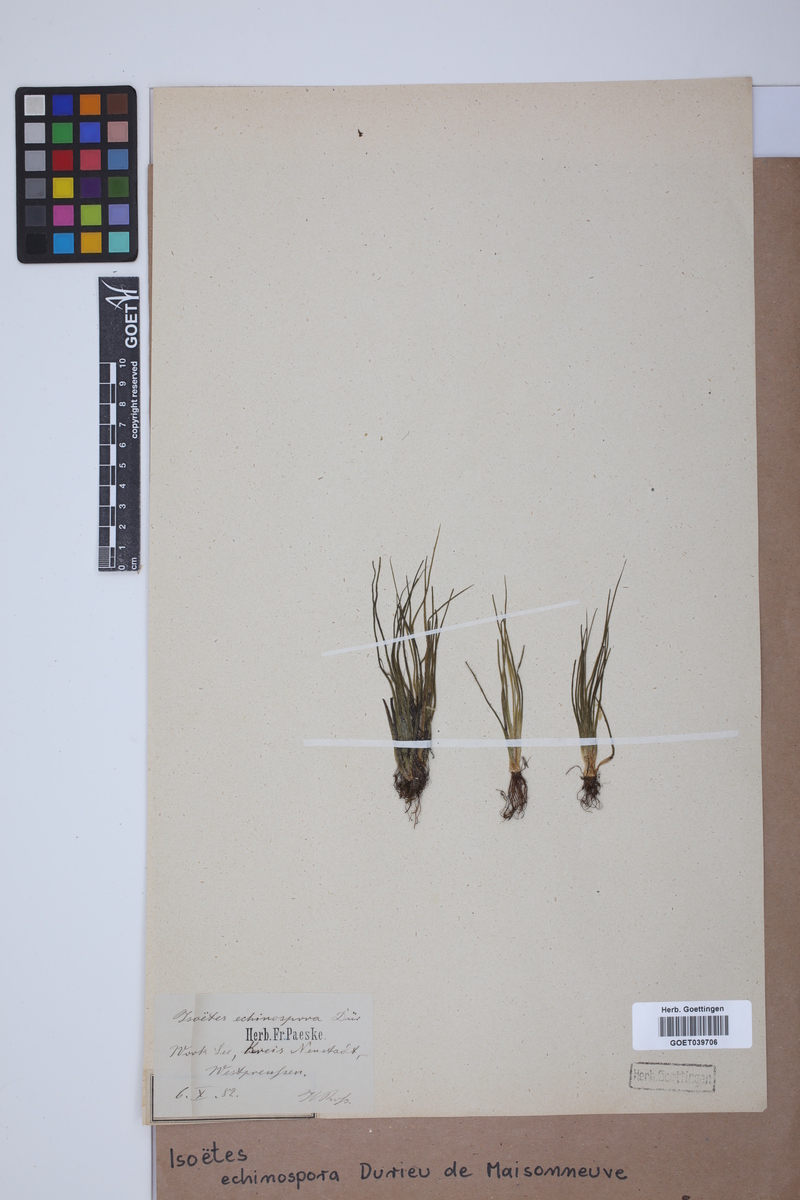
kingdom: Plantae
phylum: Tracheophyta
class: Lycopodiopsida
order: Isoetales
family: Isoetaceae
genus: Isoetes
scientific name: Isoetes echinospora
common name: Spring quillwort
